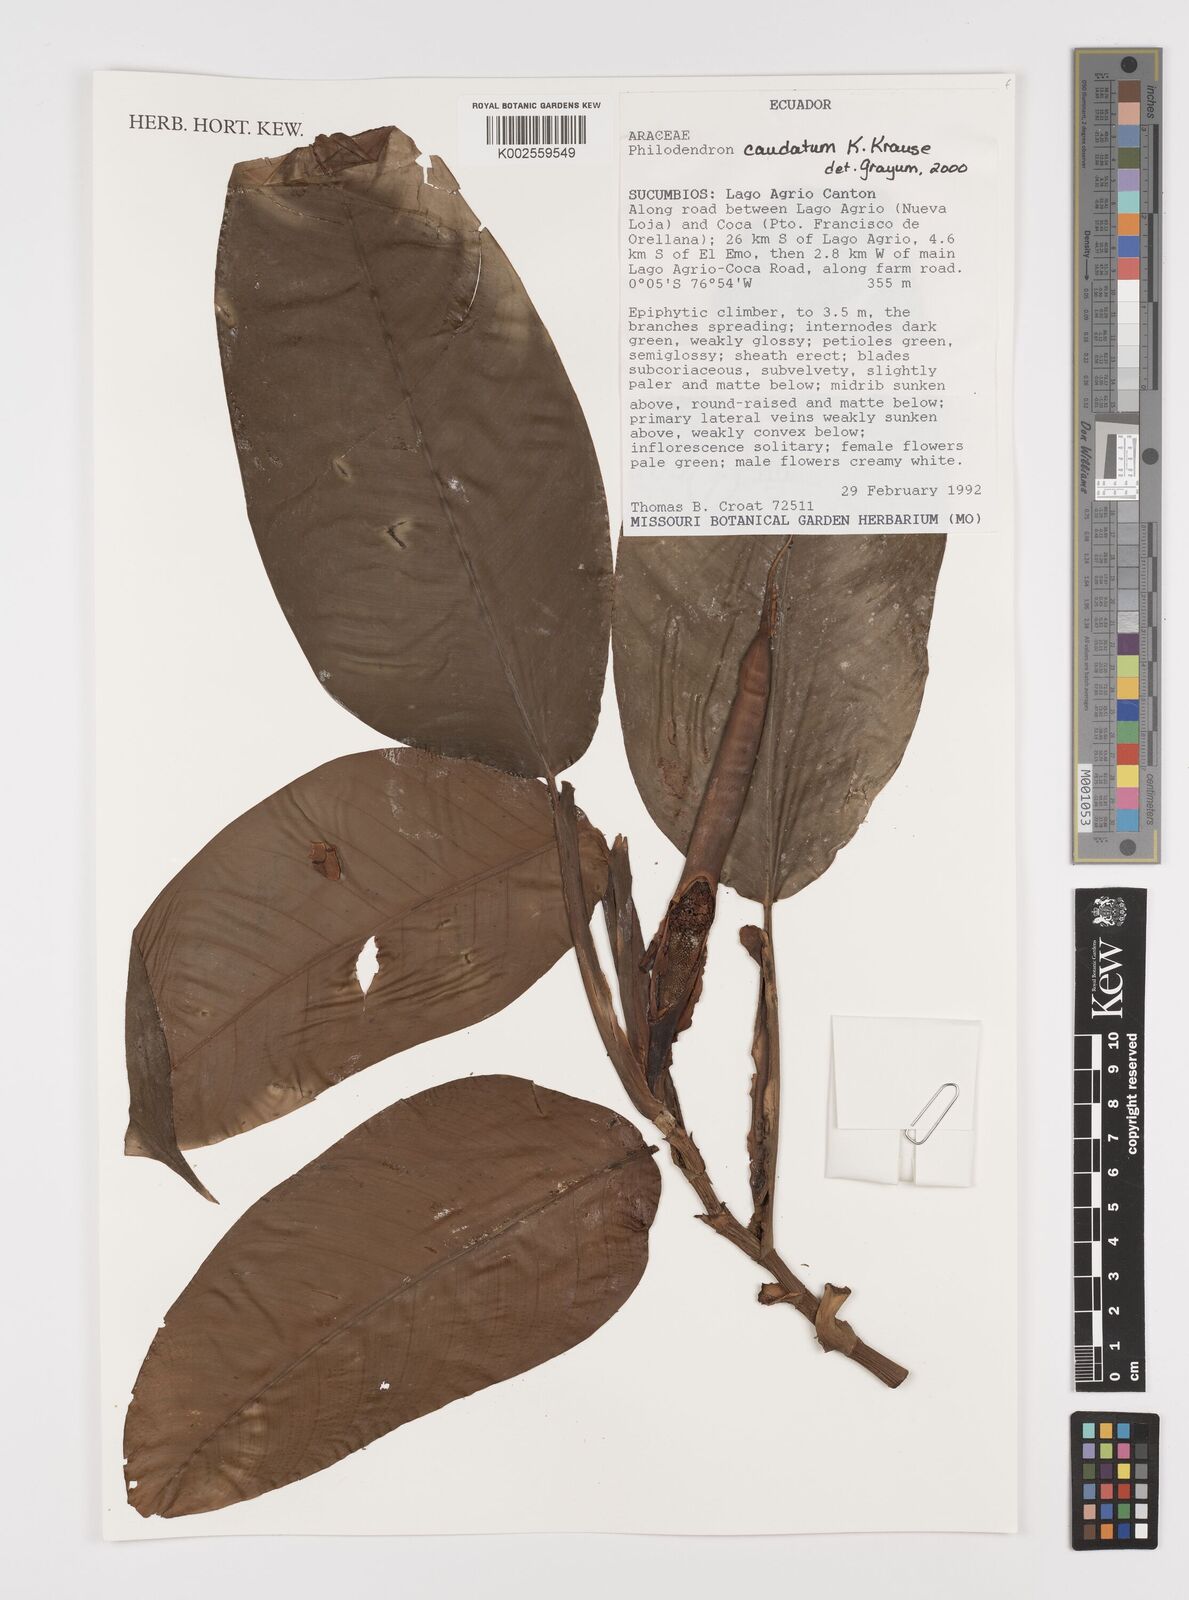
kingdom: Plantae
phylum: Tracheophyta
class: Liliopsida
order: Alismatales
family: Araceae
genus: Philodendron
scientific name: Philodendron caudatum
